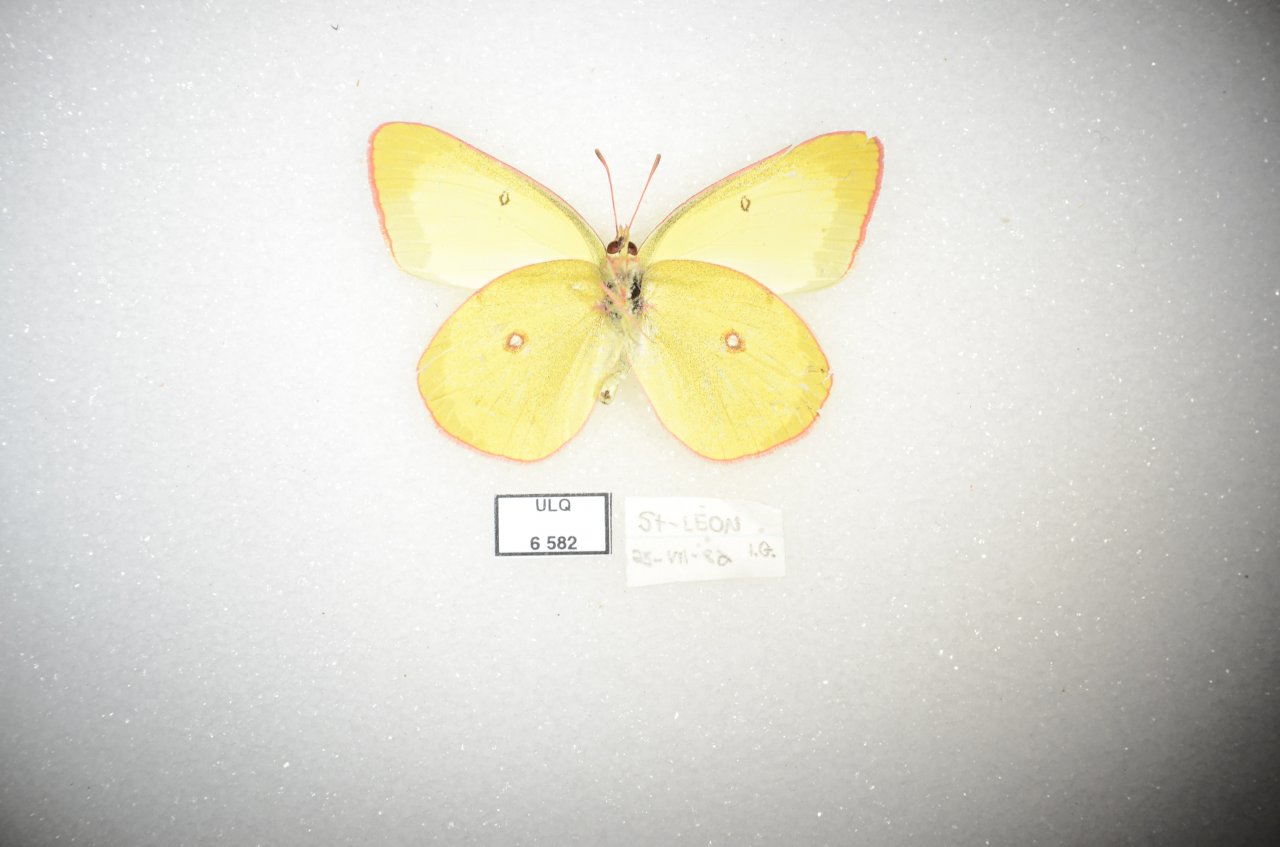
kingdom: Animalia
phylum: Arthropoda
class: Insecta
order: Lepidoptera
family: Pieridae
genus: Colias
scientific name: Colias interior
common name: Pink-edged Sulphur
